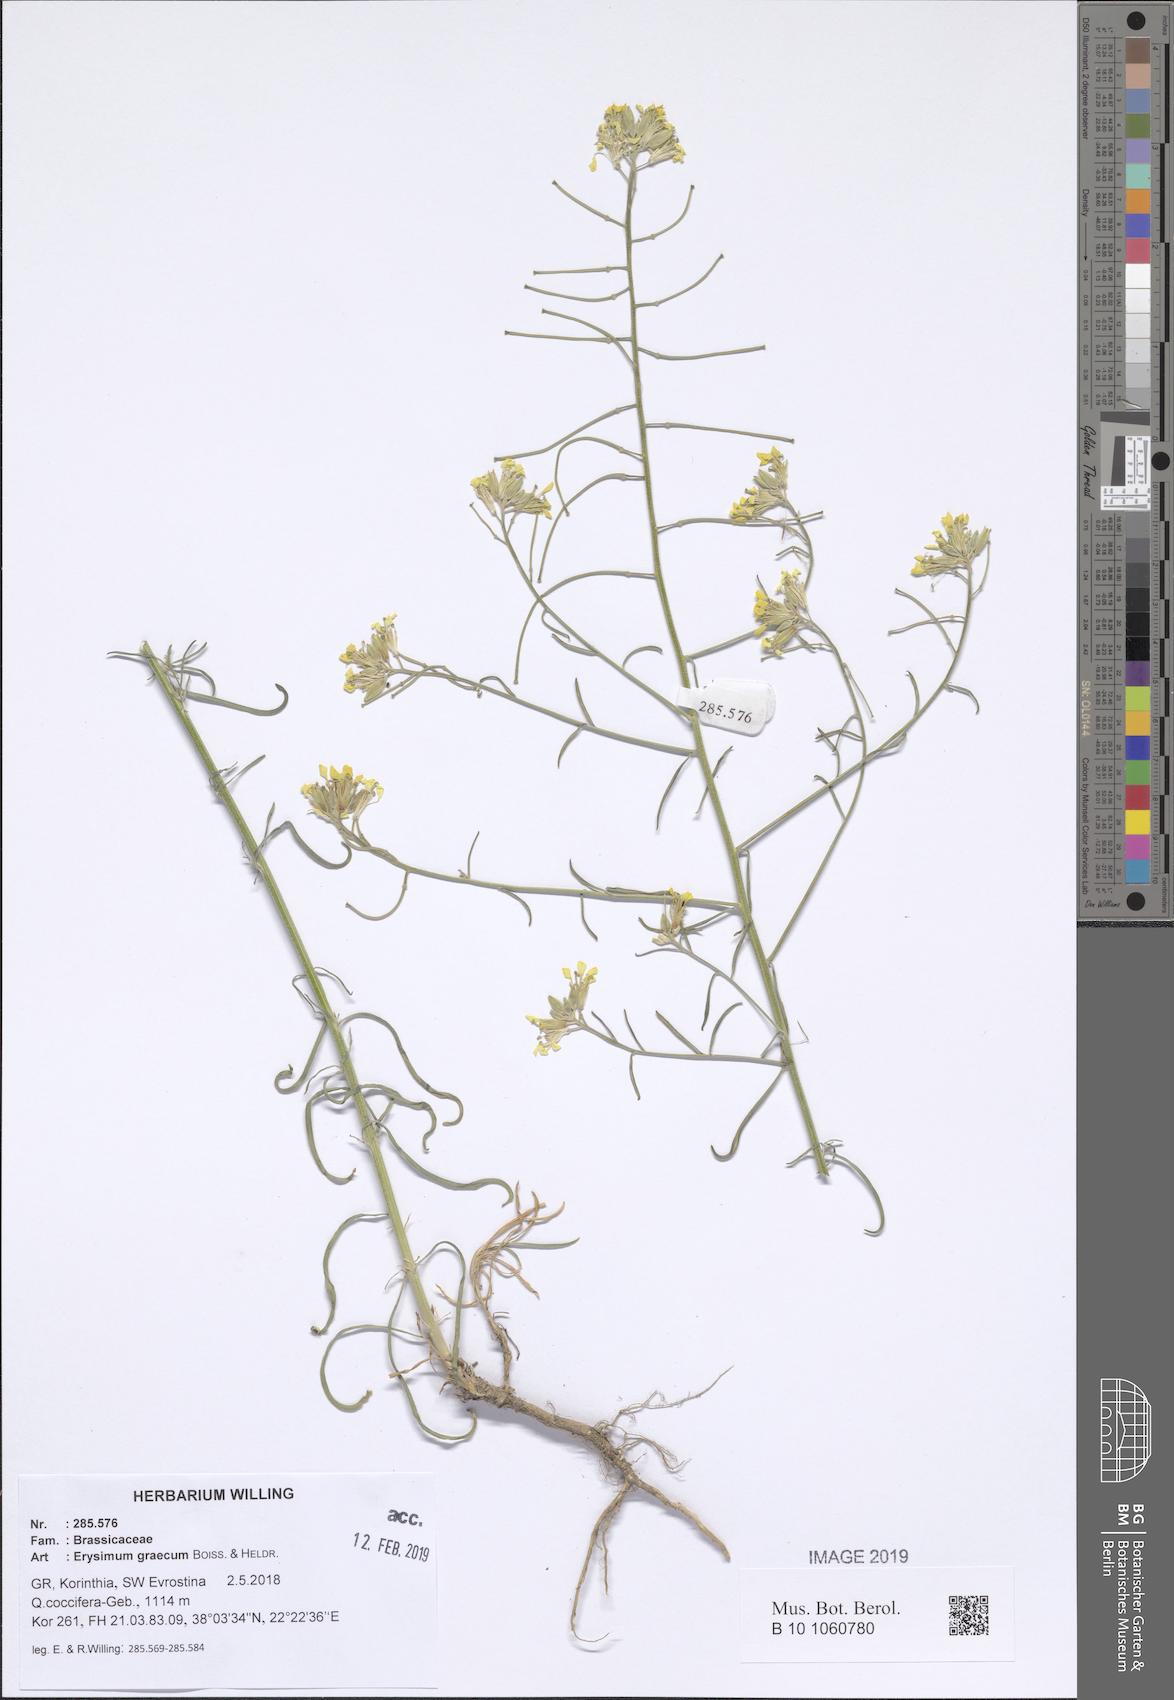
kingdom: Plantae
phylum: Tracheophyta
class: Magnoliopsida
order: Brassicales
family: Brassicaceae
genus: Erysimum
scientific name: Erysimum graecum
